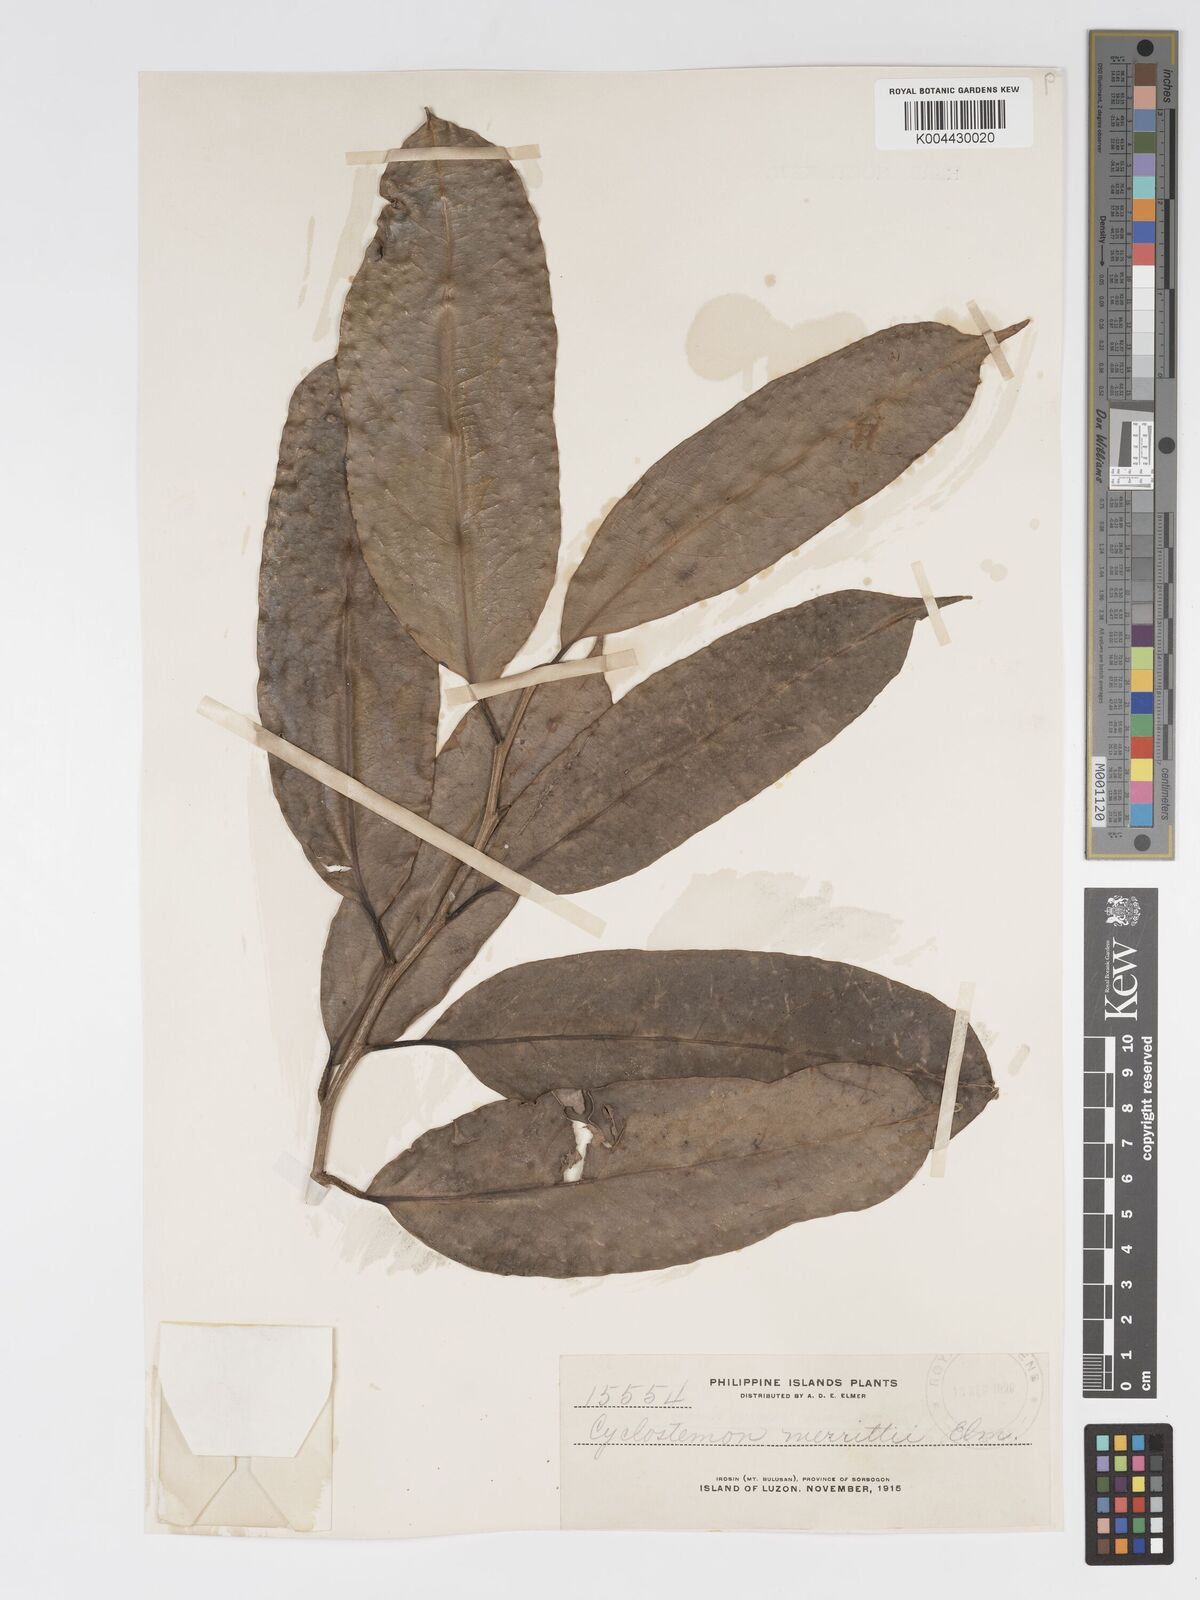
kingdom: Plantae
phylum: Tracheophyta
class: Magnoliopsida
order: Malpighiales
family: Putranjivaceae
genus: Drypetes
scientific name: Drypetes grandifolia
